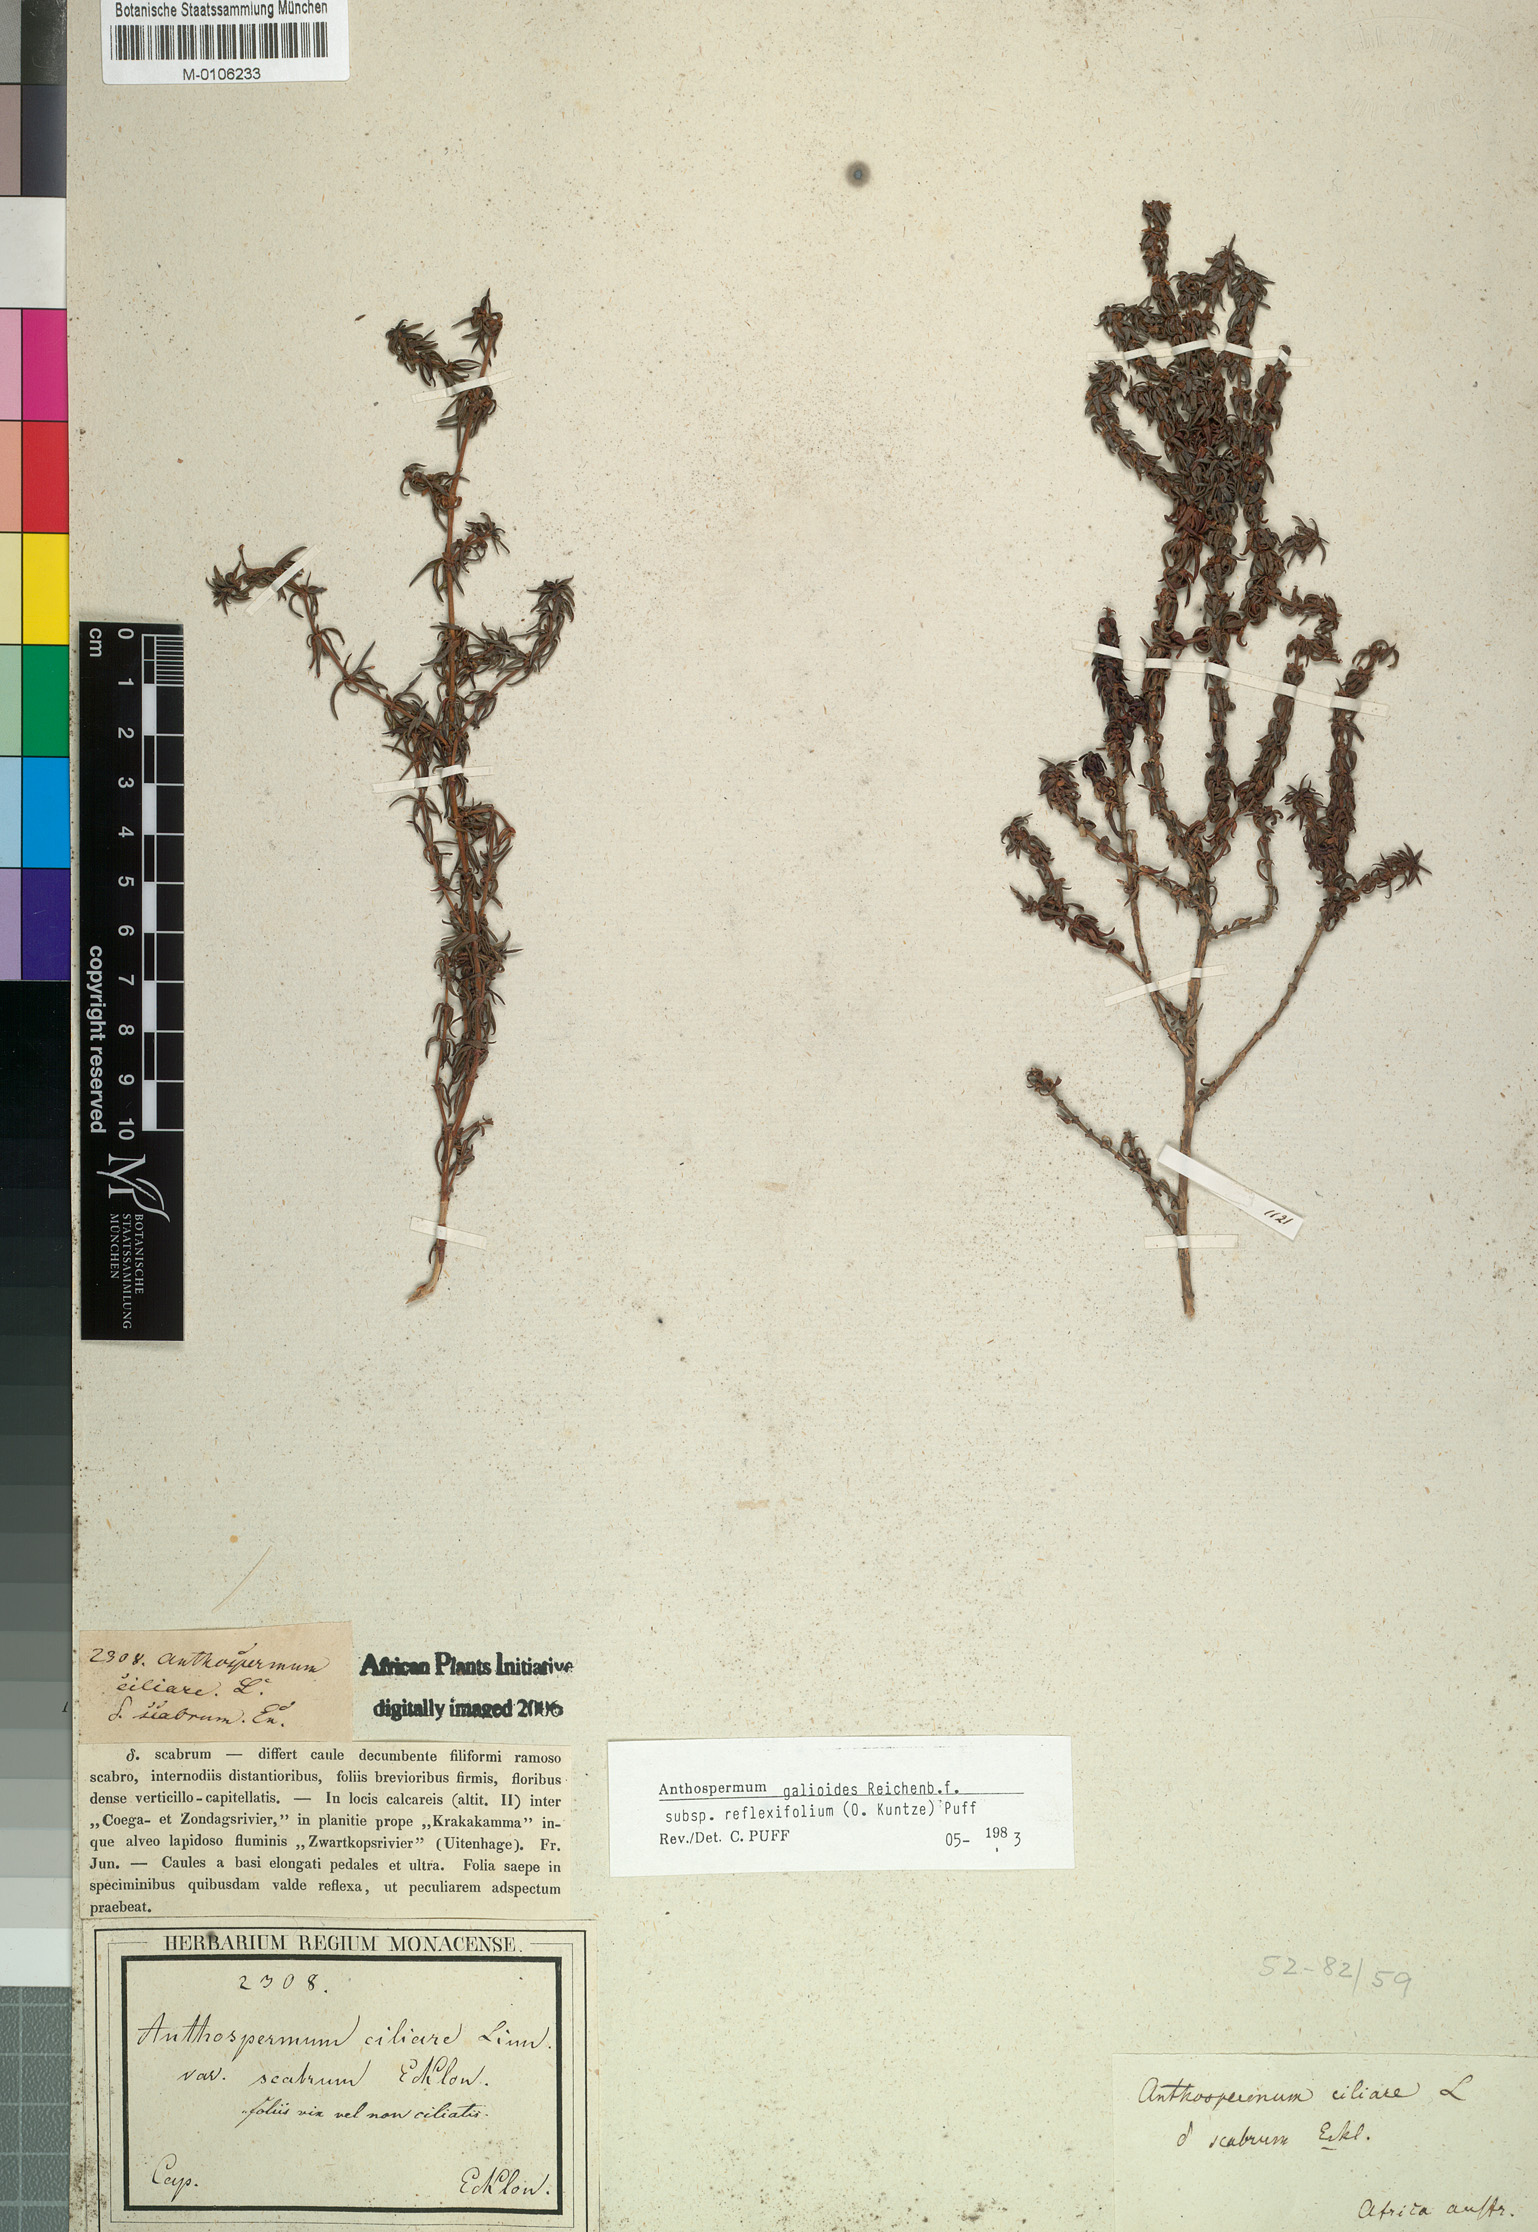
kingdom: Plantae
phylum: Tracheophyta
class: Magnoliopsida
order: Gentianales
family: Rubiaceae
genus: Anthospermum
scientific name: Anthospermum galioides
